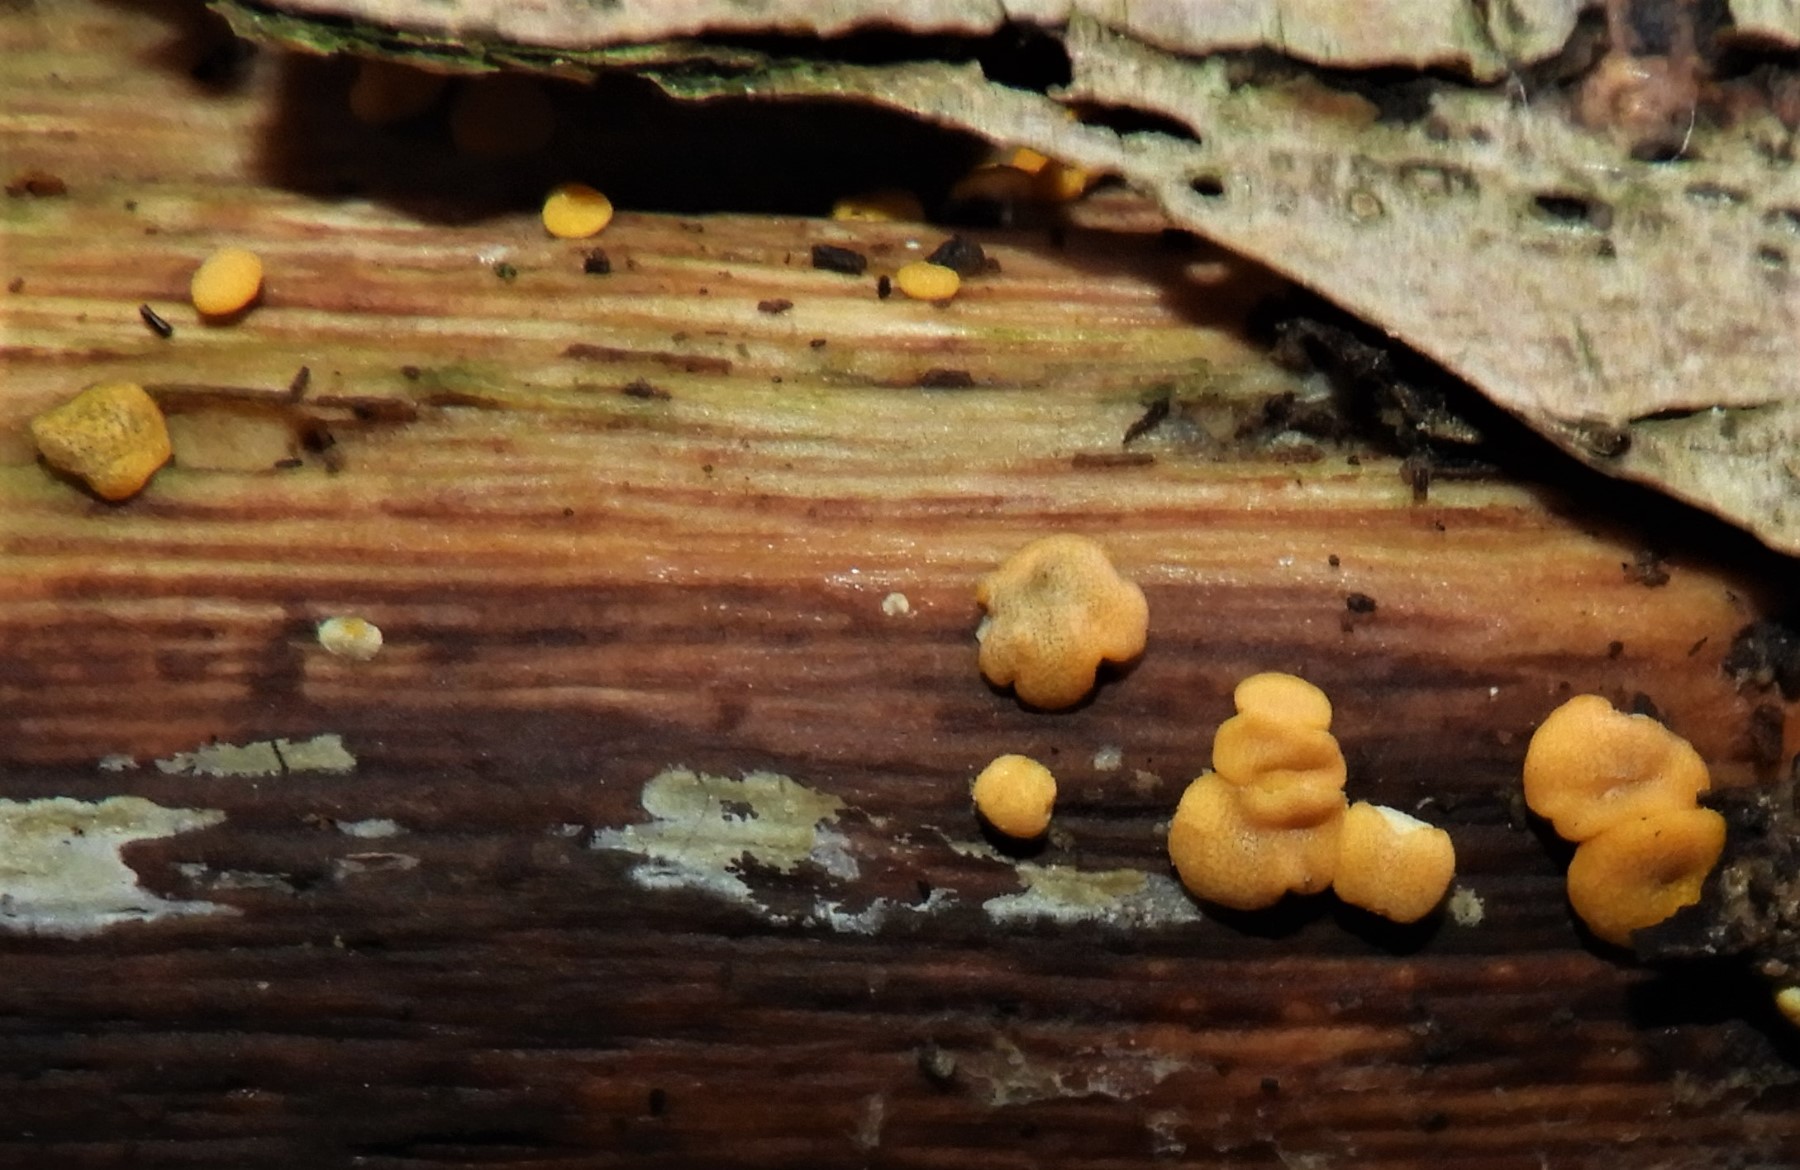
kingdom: Fungi
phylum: Ascomycota
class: Sordariomycetes
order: Hypocreales
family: Hypocreaceae
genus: Trichoderma
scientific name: Trichoderma aureoviride
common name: æggegul kødkerne
